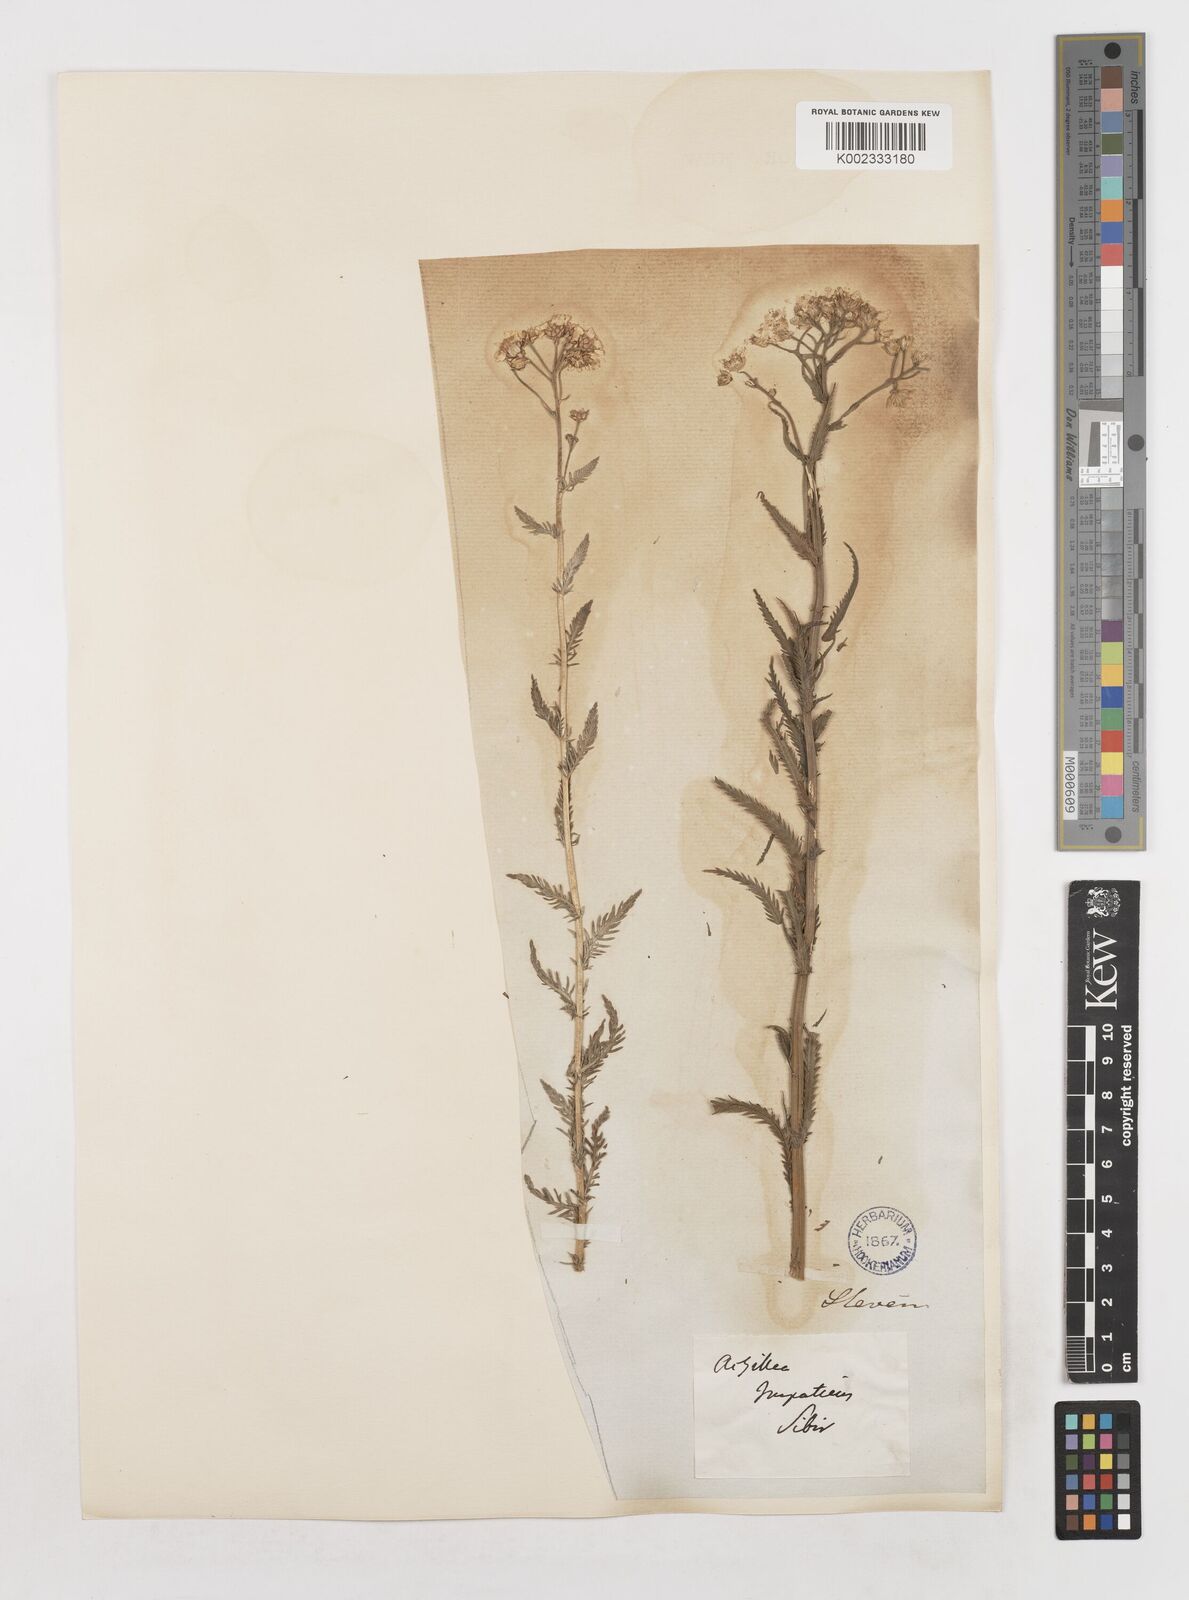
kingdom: Plantae
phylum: Tracheophyta
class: Magnoliopsida
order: Asterales
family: Asteraceae
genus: Achillea
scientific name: Achillea impatiens
